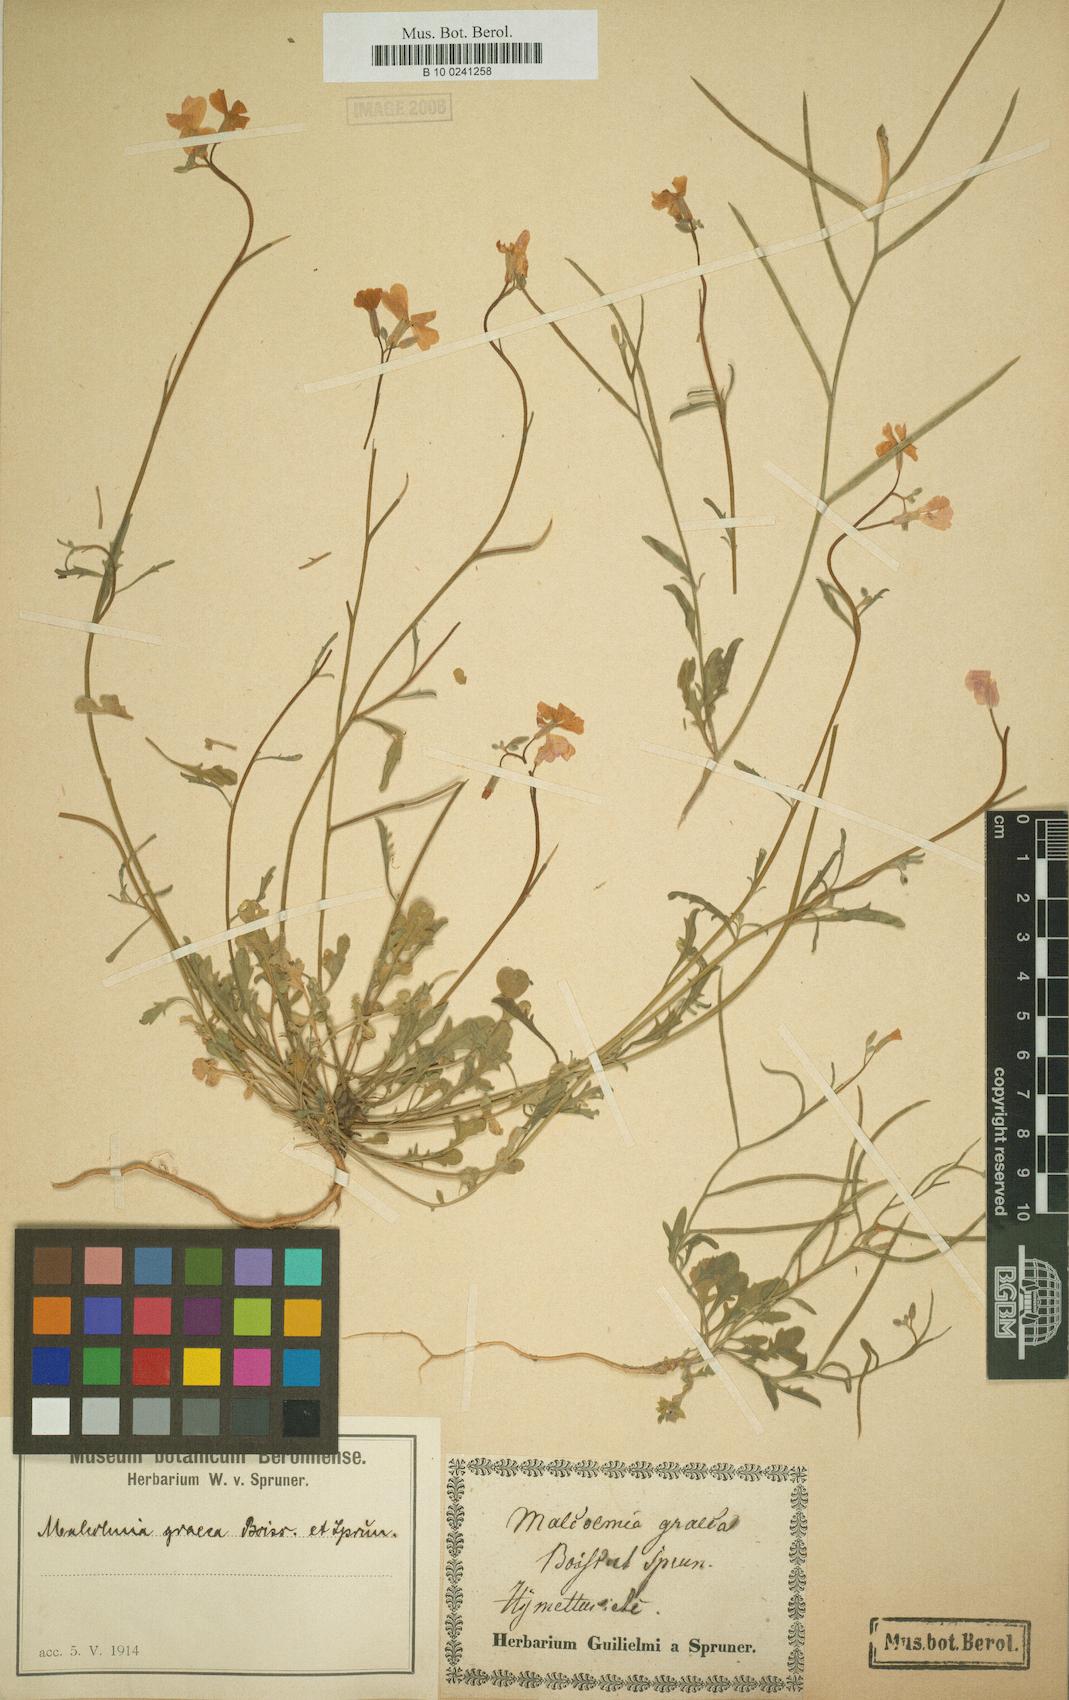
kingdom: Plantae
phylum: Tracheophyta
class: Magnoliopsida
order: Brassicales
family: Brassicaceae
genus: Malcolmia
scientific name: Malcolmia graeca
